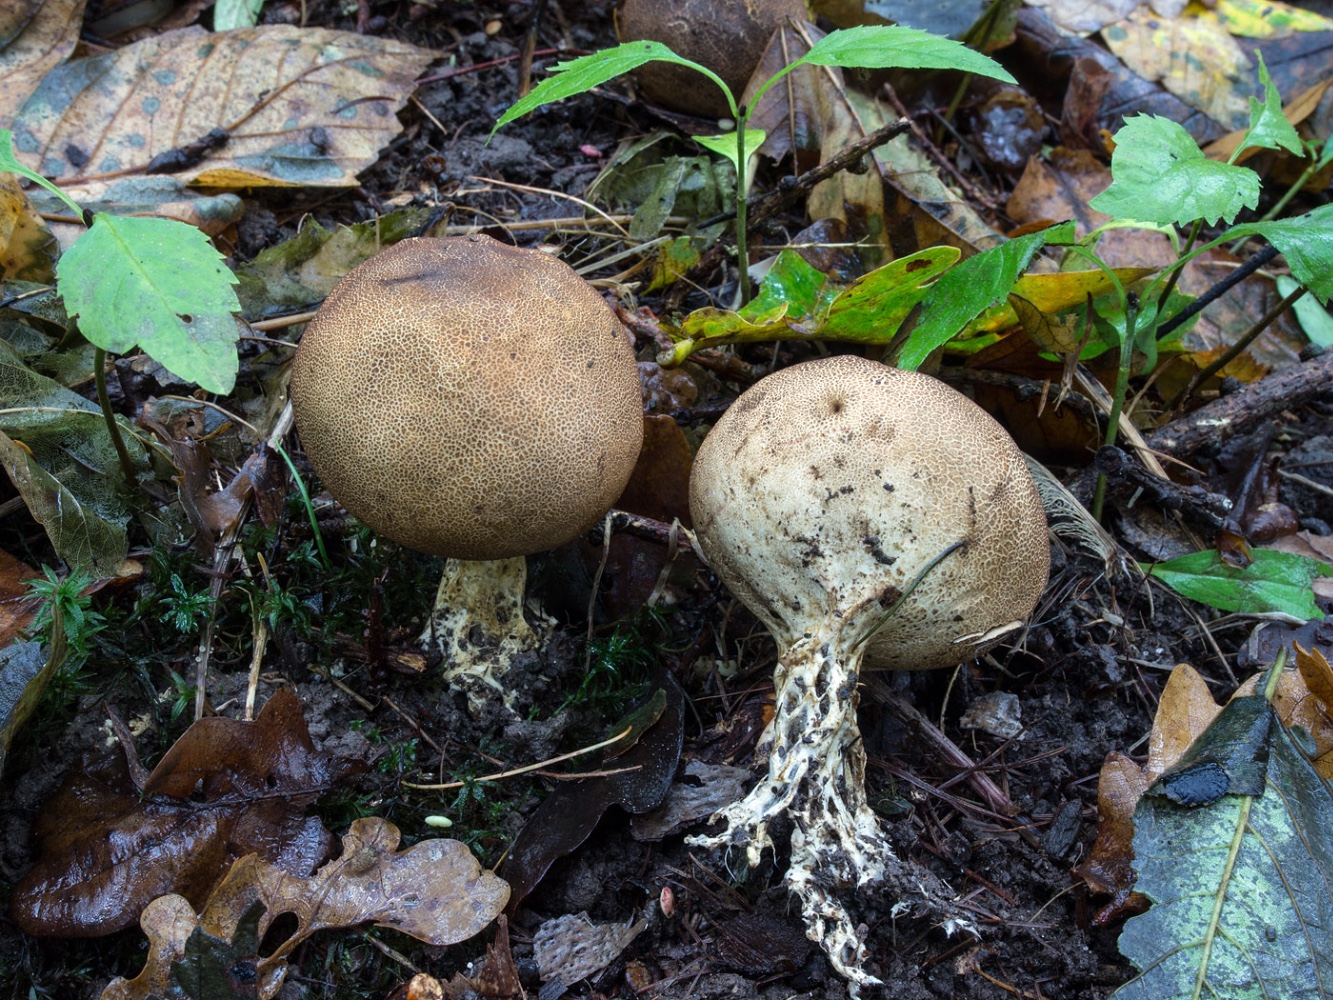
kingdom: Fungi
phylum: Basidiomycota
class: Agaricomycetes
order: Boletales
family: Sclerodermataceae
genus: Scleroderma
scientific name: Scleroderma areolatum
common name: plettet bruskbold
